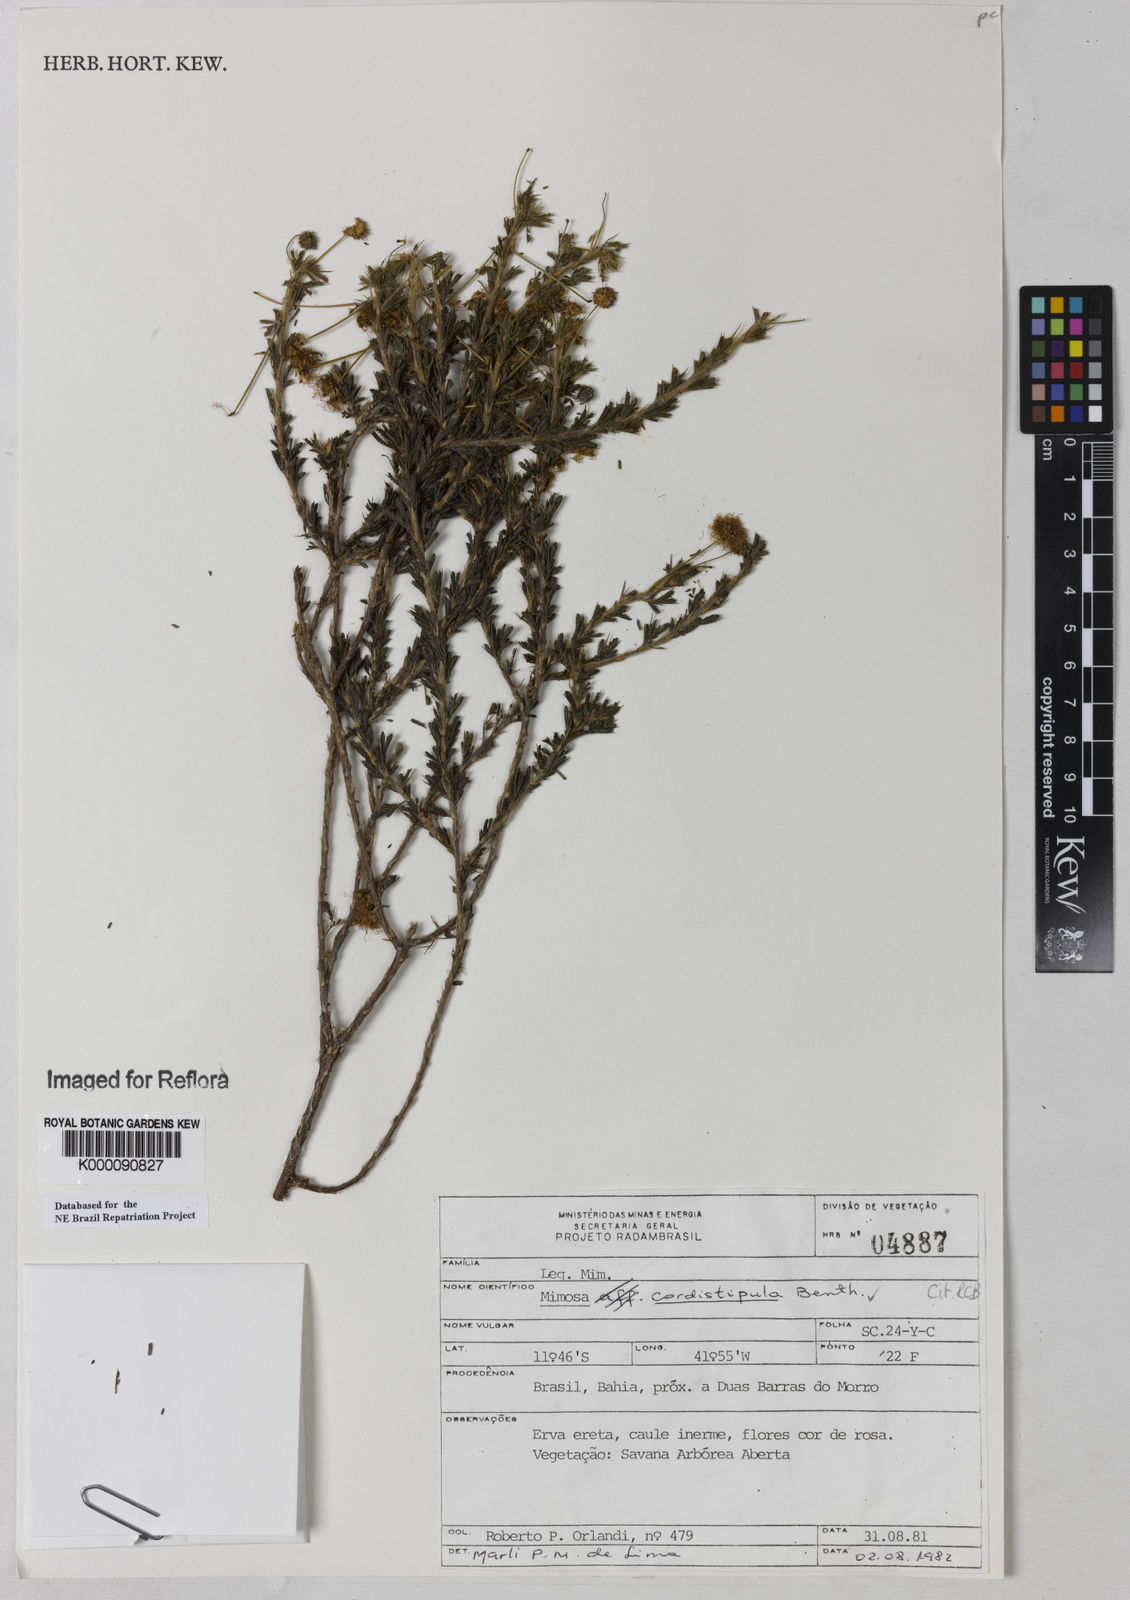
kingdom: Plantae
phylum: Tracheophyta
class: Magnoliopsida
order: Fabales
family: Fabaceae
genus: Mimosa
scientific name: Mimosa cordistipula
